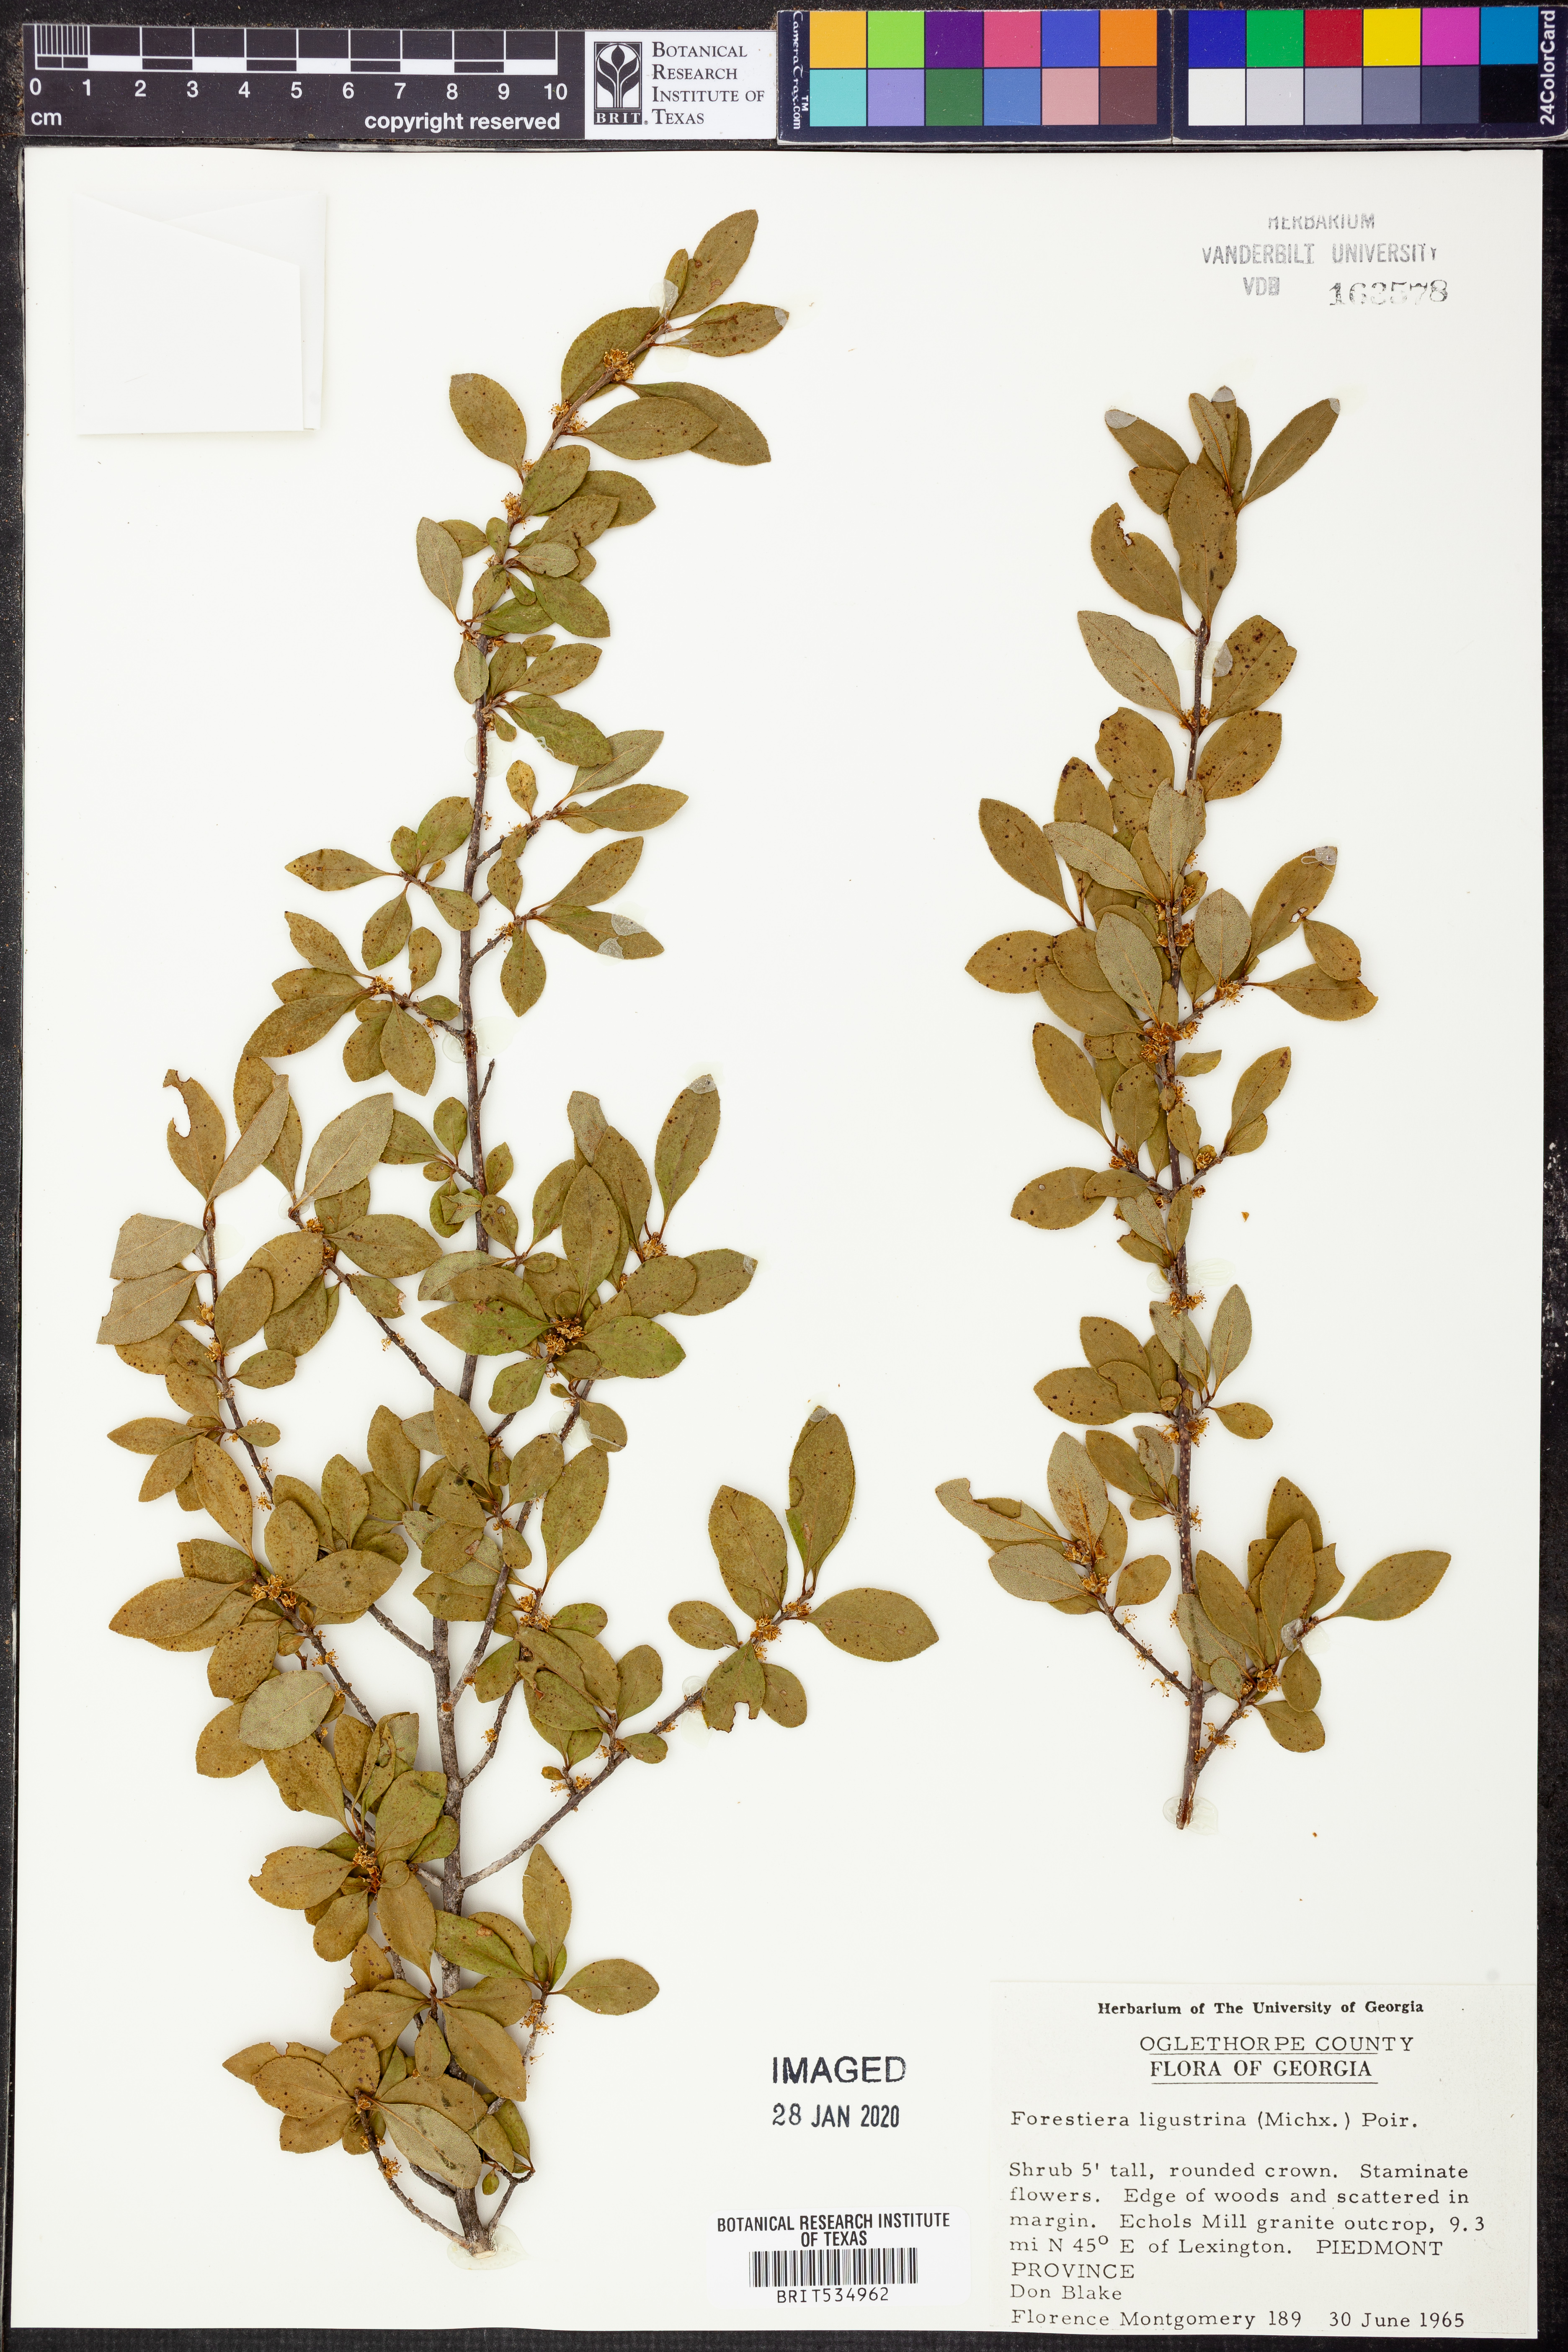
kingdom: Plantae
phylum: Tracheophyta
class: Magnoliopsida
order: Lamiales
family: Oleaceae
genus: Forestiera
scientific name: Forestiera ligustrina
